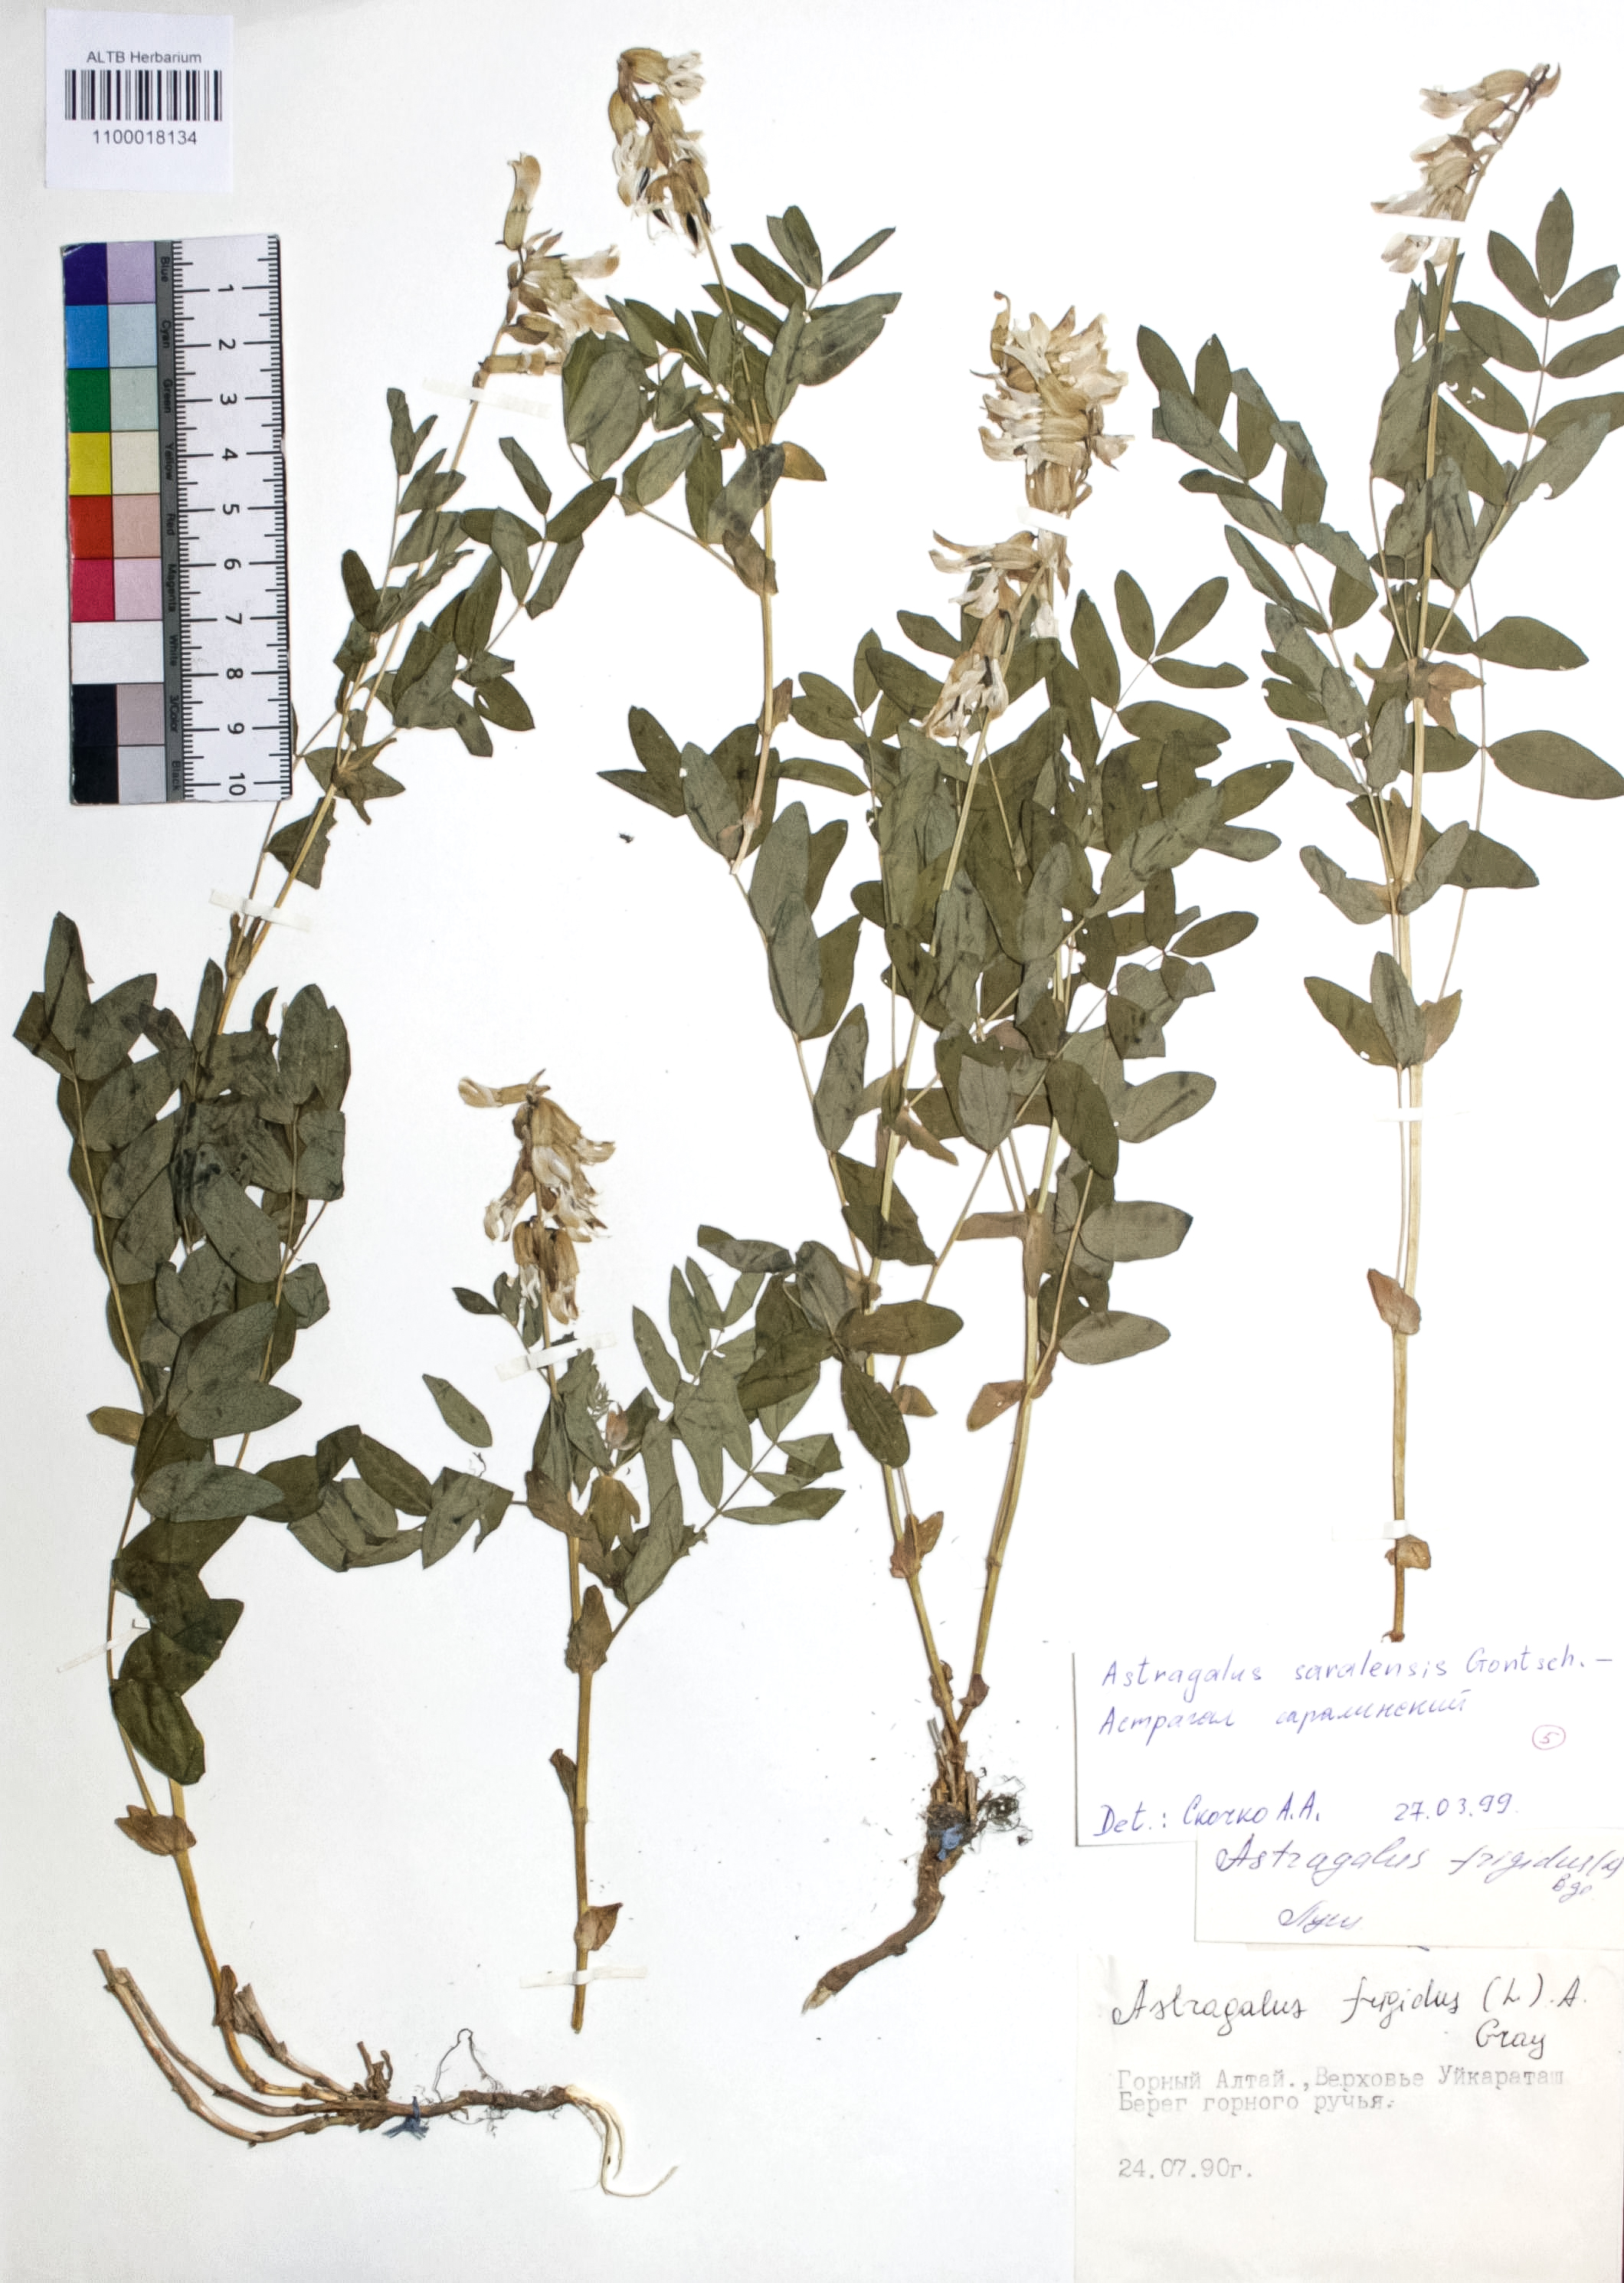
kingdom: Plantae
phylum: Tracheophyta
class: Magnoliopsida
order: Fabales
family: Fabaceae
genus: Astragalus
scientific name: Astragalus frigidus
